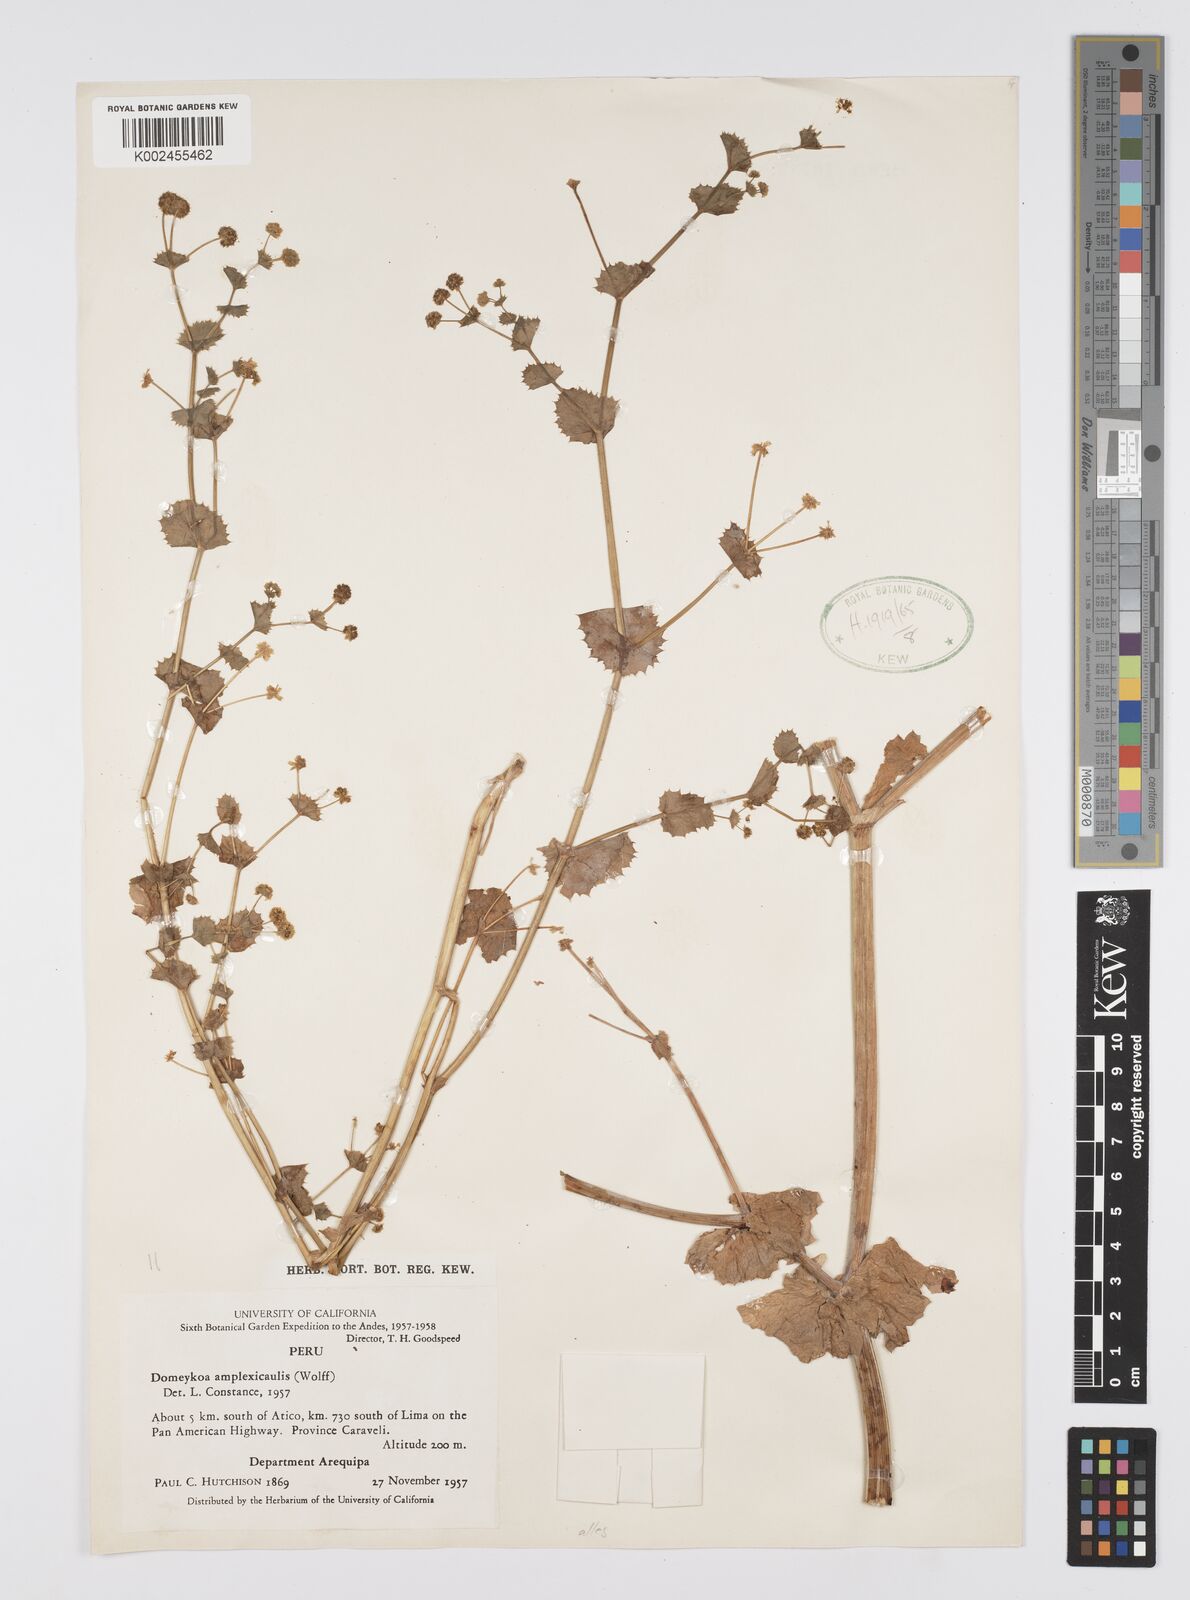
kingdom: Plantae
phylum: Tracheophyta
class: Magnoliopsida
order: Apiales
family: Apiaceae
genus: Domeykoa
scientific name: Domeykoa amplexicaulis
